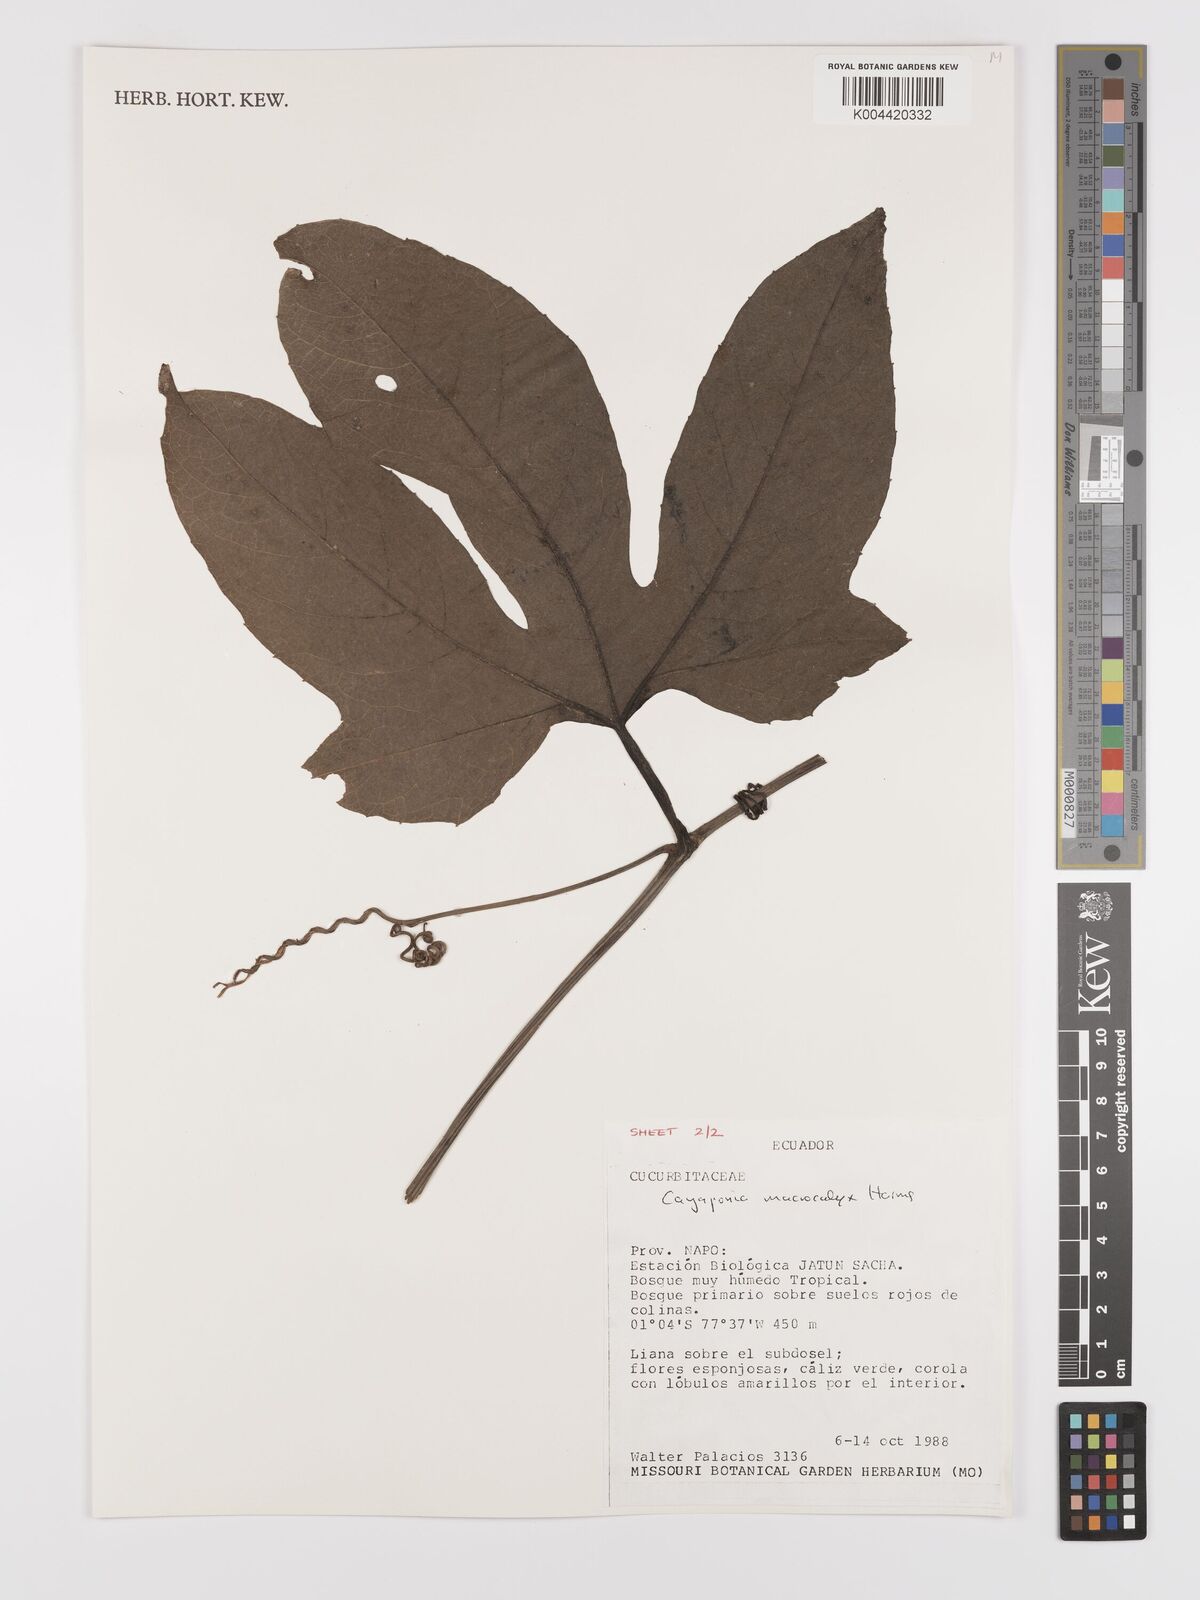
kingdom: Plantae
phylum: Tracheophyta
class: Magnoliopsida
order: Cucurbitales
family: Cucurbitaceae
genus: Cayaponia
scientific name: Cayaponia macrocalyx
